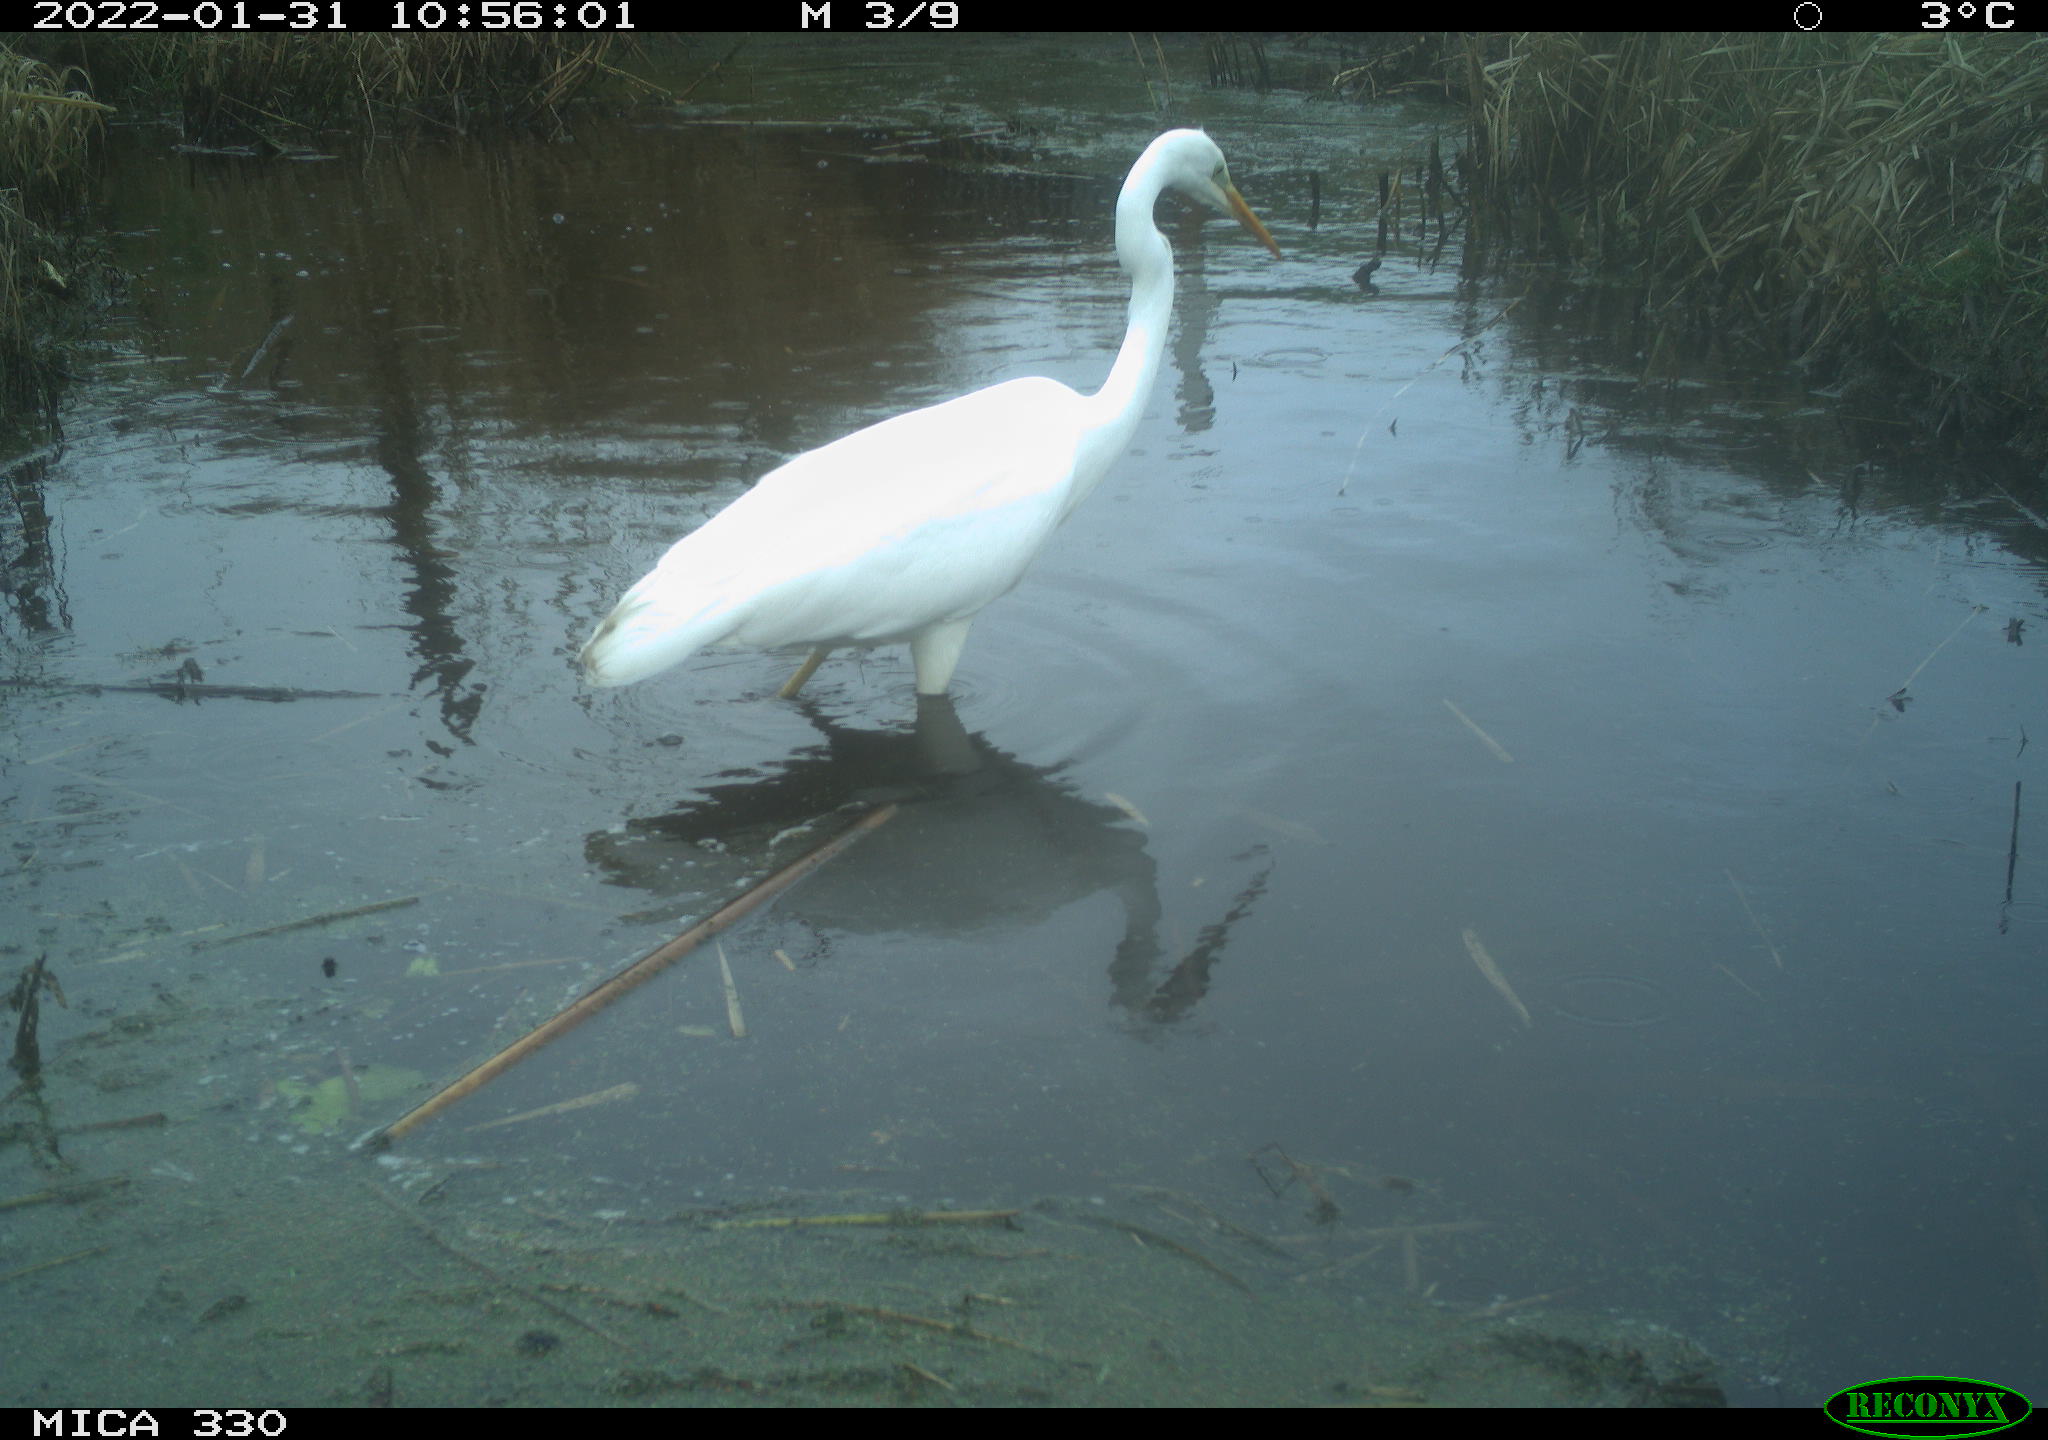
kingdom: Animalia
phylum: Chordata
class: Aves
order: Pelecaniformes
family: Ardeidae
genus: Ardea
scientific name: Ardea alba
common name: Great egret
